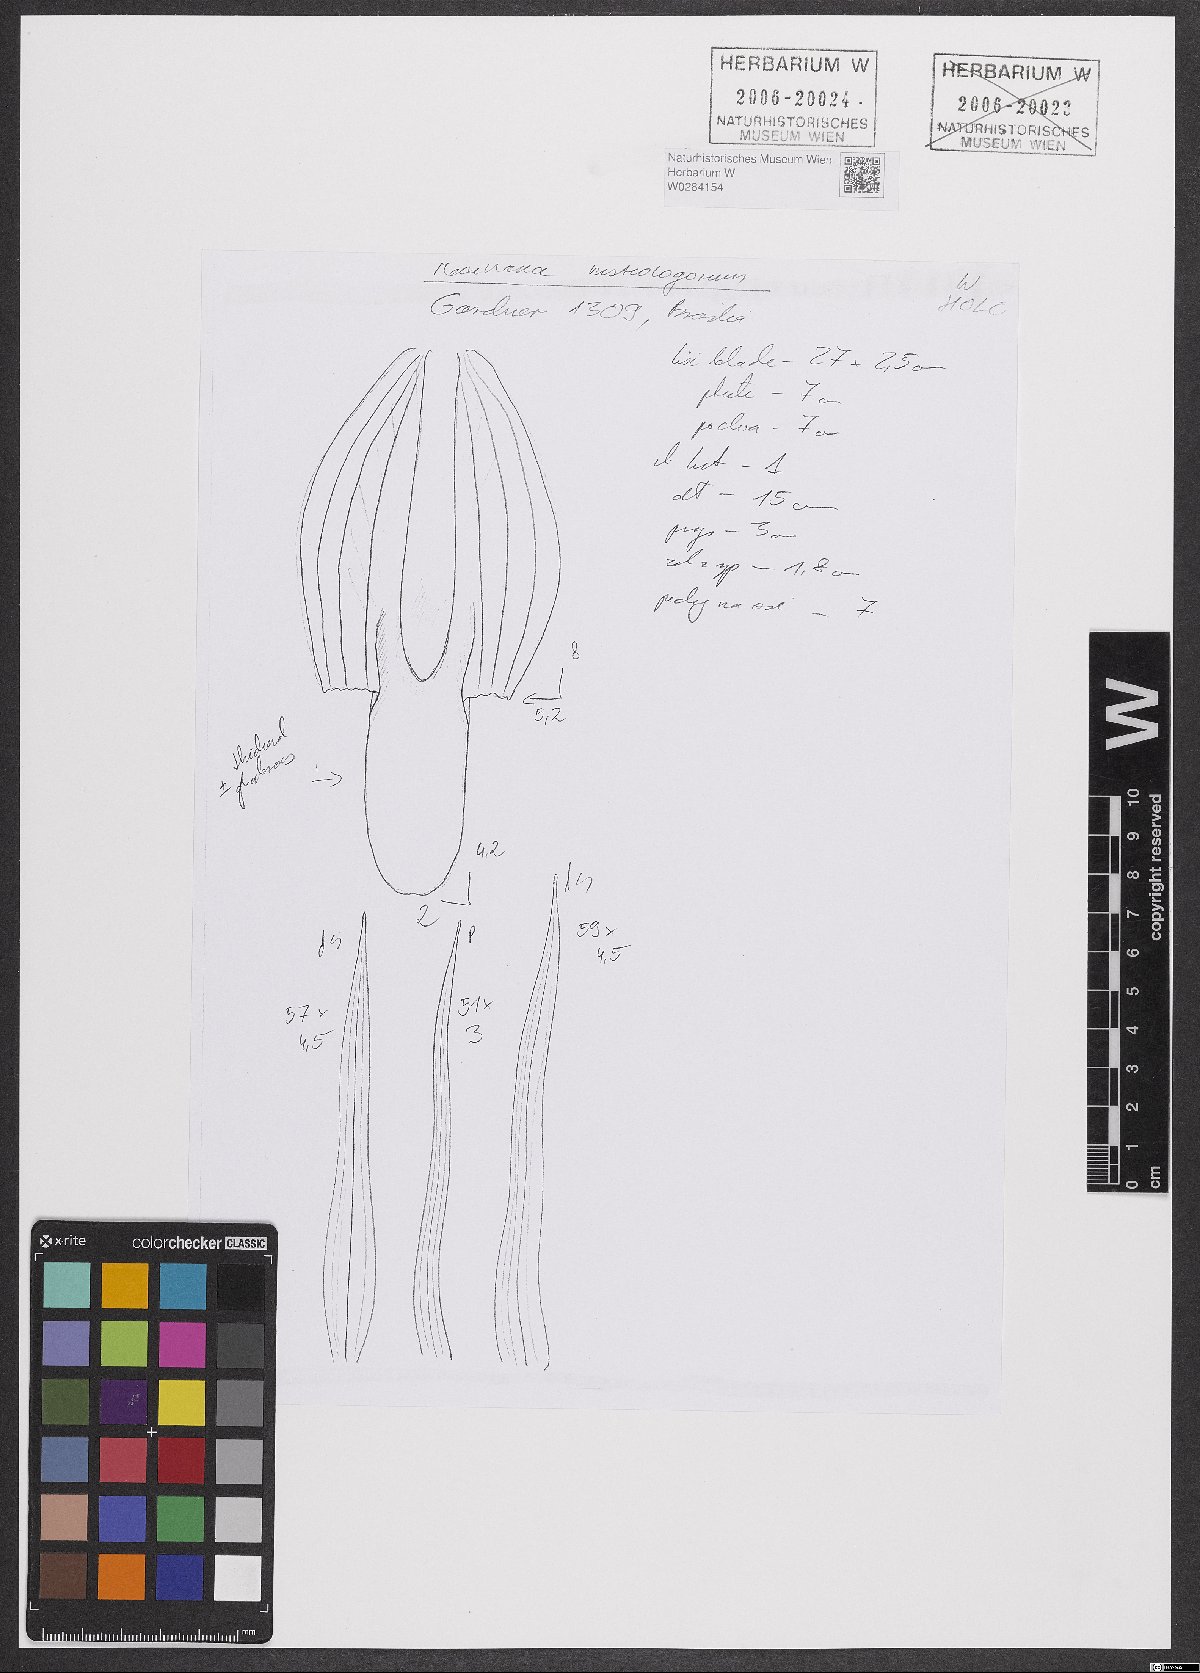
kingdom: Plantae
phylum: Tracheophyta
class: Liliopsida
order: Asparagales
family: Orchidaceae
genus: Maxillaria
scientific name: Maxillaria splendens
